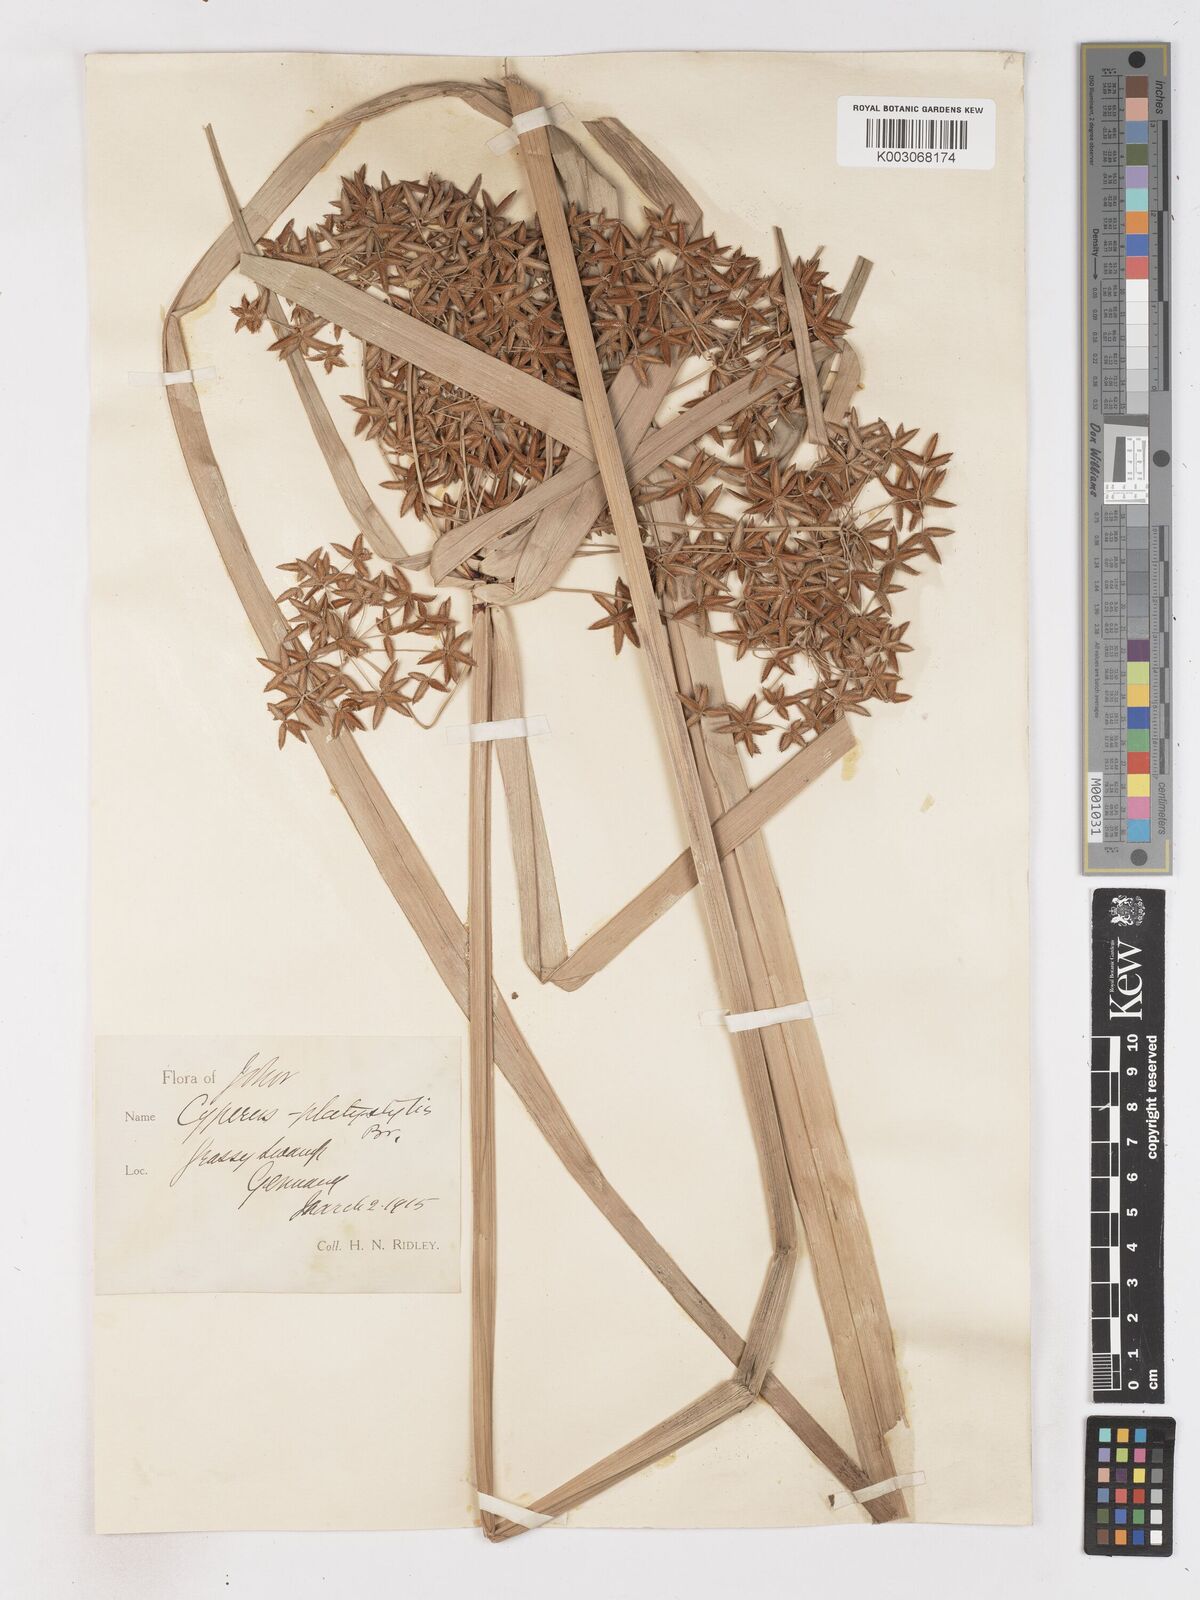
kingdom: Plantae
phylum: Tracheophyta
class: Liliopsida
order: Poales
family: Cyperaceae
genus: Cyperus
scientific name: Cyperus platystylis
